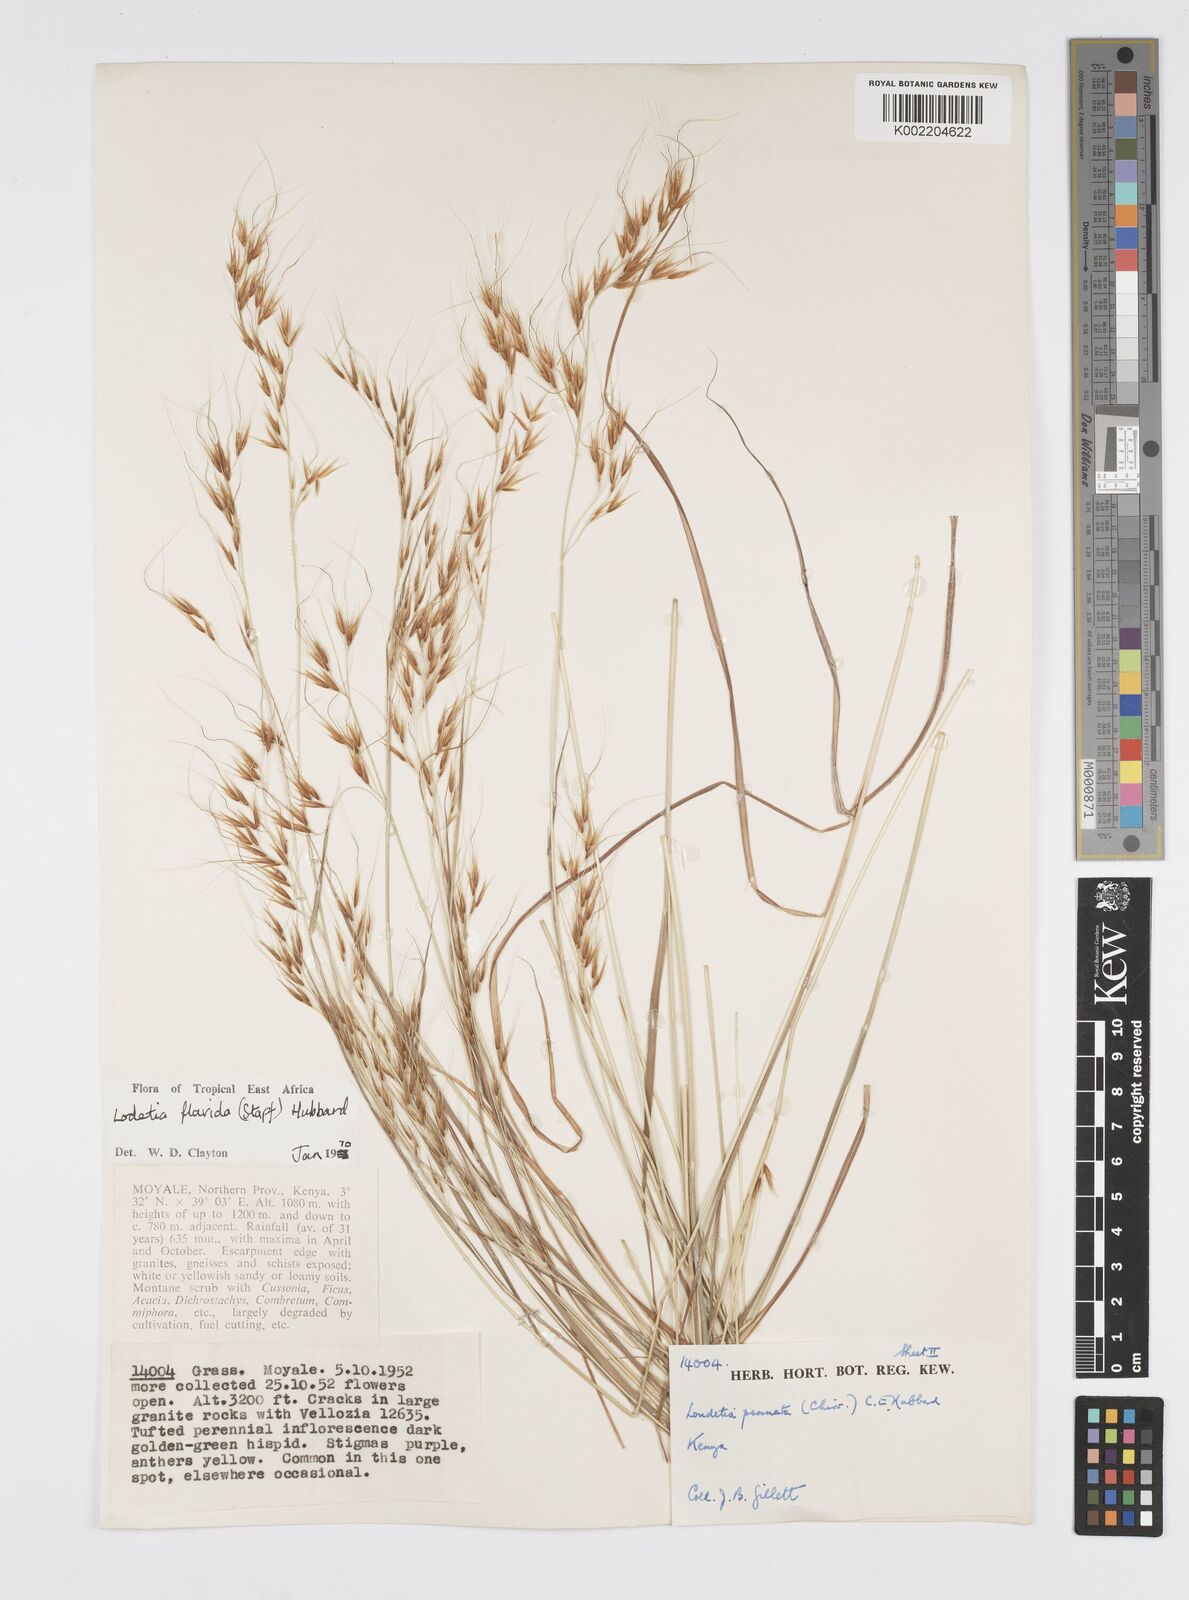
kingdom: Plantae
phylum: Tracheophyta
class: Liliopsida
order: Poales
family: Poaceae
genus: Loudetia
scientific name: Loudetia flavida
